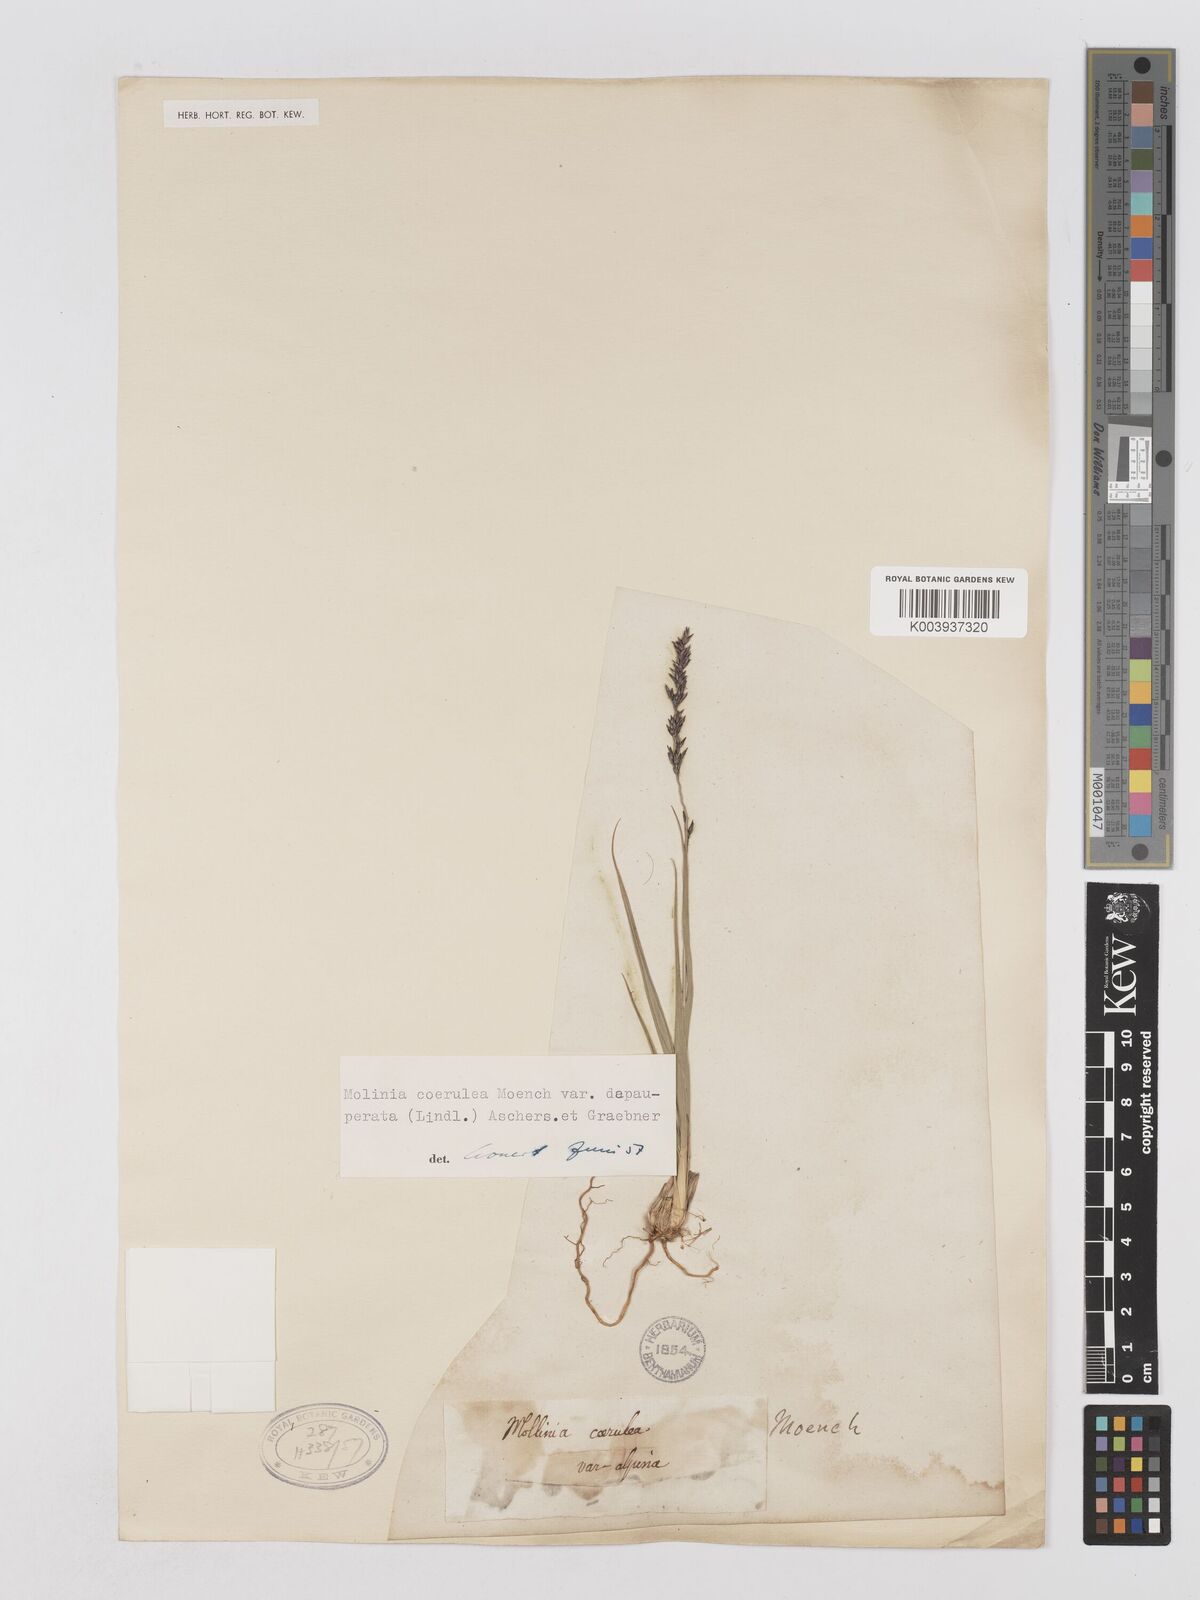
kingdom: Plantae
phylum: Tracheophyta
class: Liliopsida
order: Poales
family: Poaceae
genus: Molinia
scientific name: Molinia caerulea
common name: Purple moor-grass
